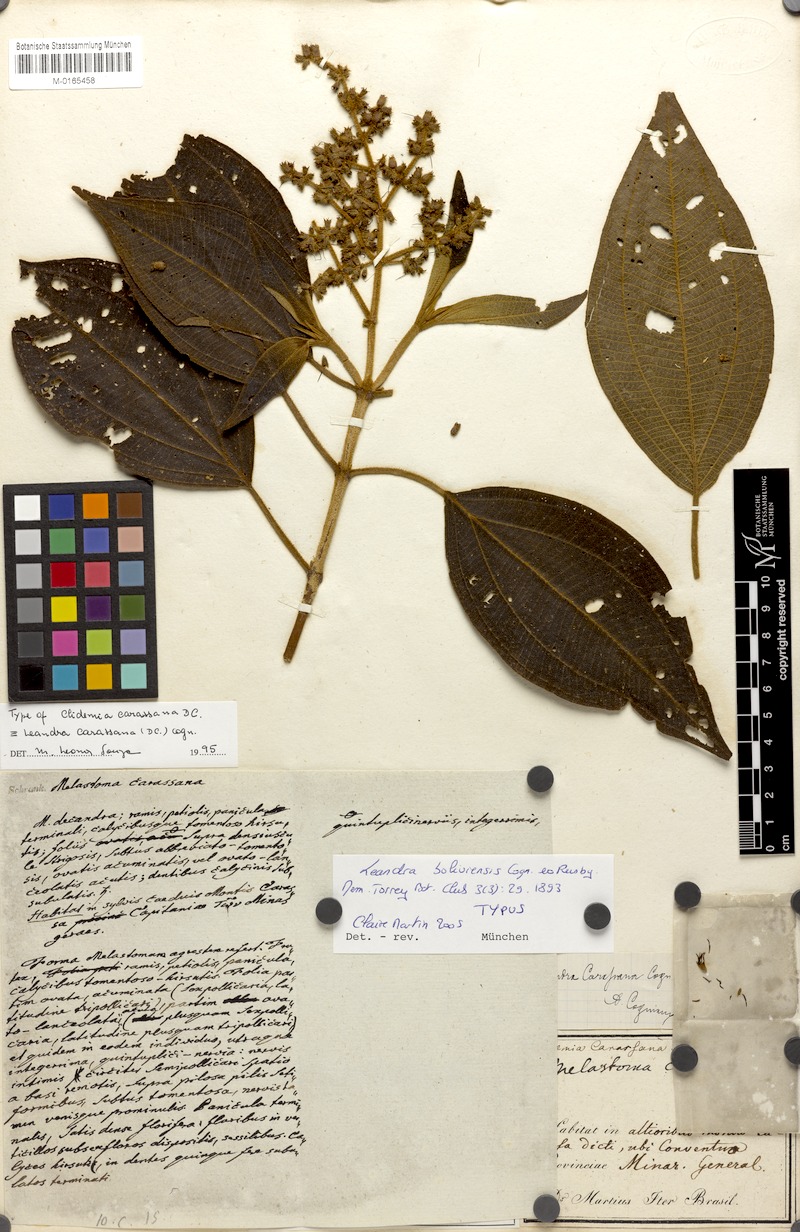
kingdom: Plantae
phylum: Tracheophyta
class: Magnoliopsida
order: Myrtales
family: Melastomataceae
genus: Miconia
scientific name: Miconia sublanata
